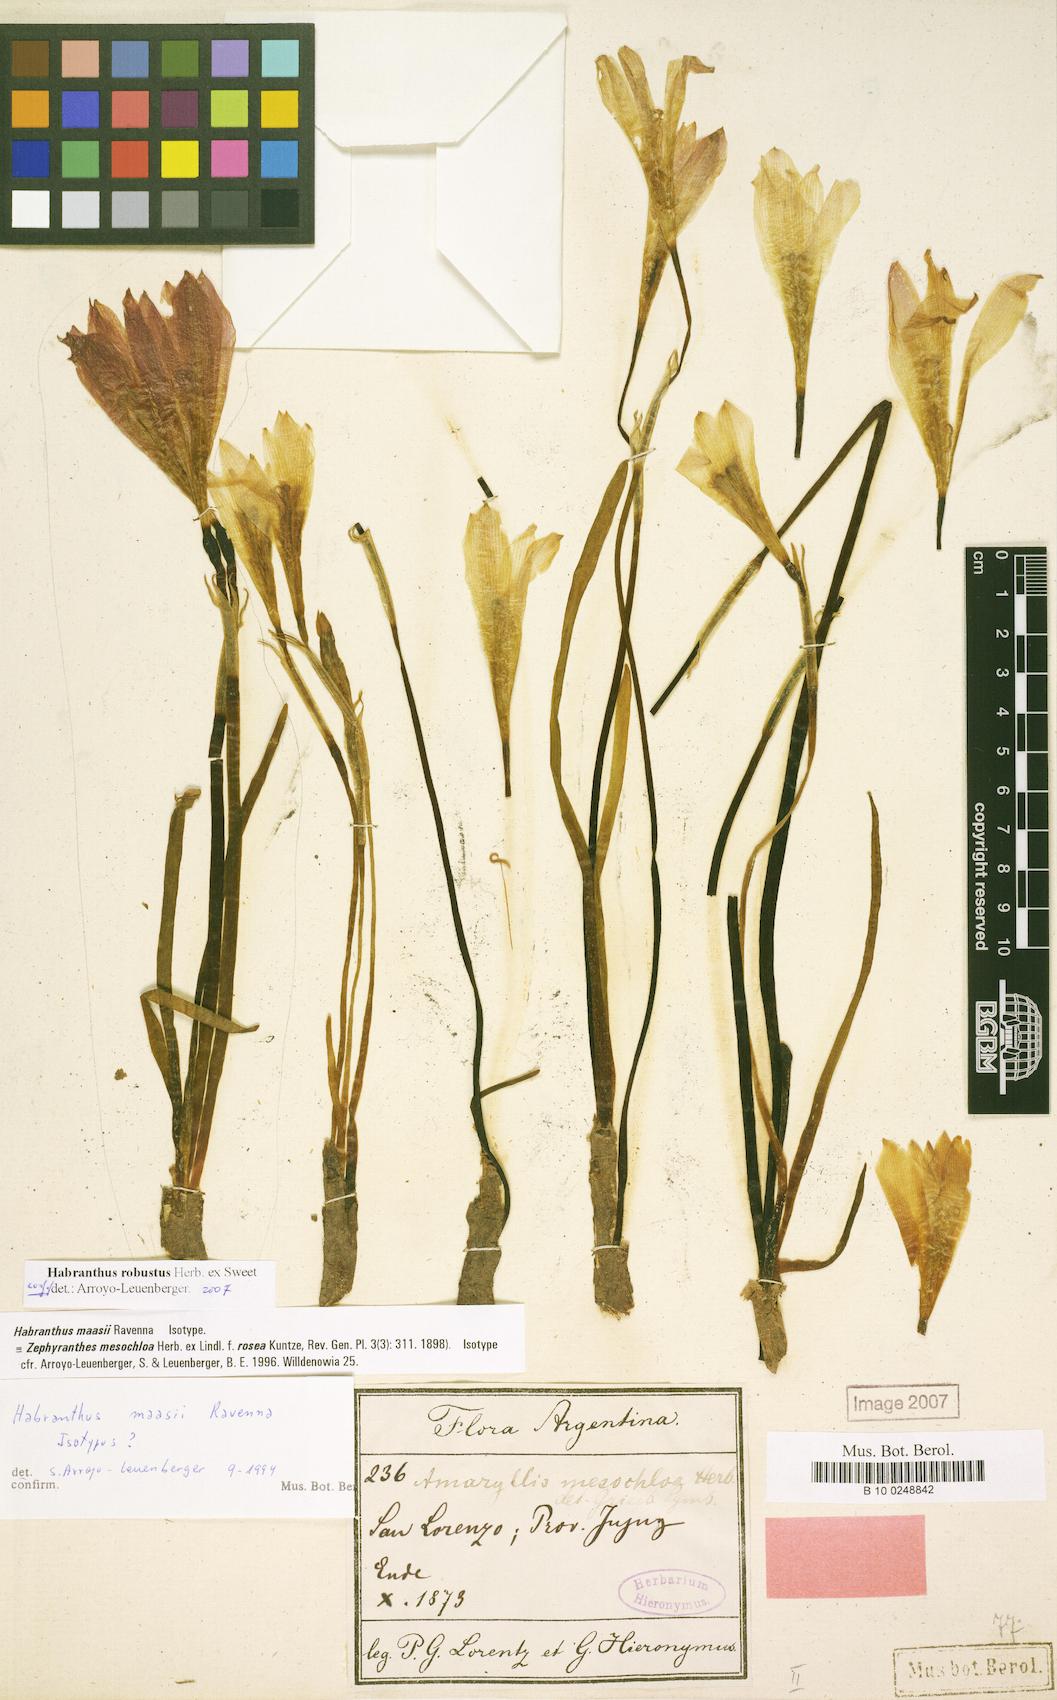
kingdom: Plantae
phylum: Tracheophyta
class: Liliopsida
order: Asparagales
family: Amaryllidaceae
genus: Zephyranthes
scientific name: Zephyranthes robusta
